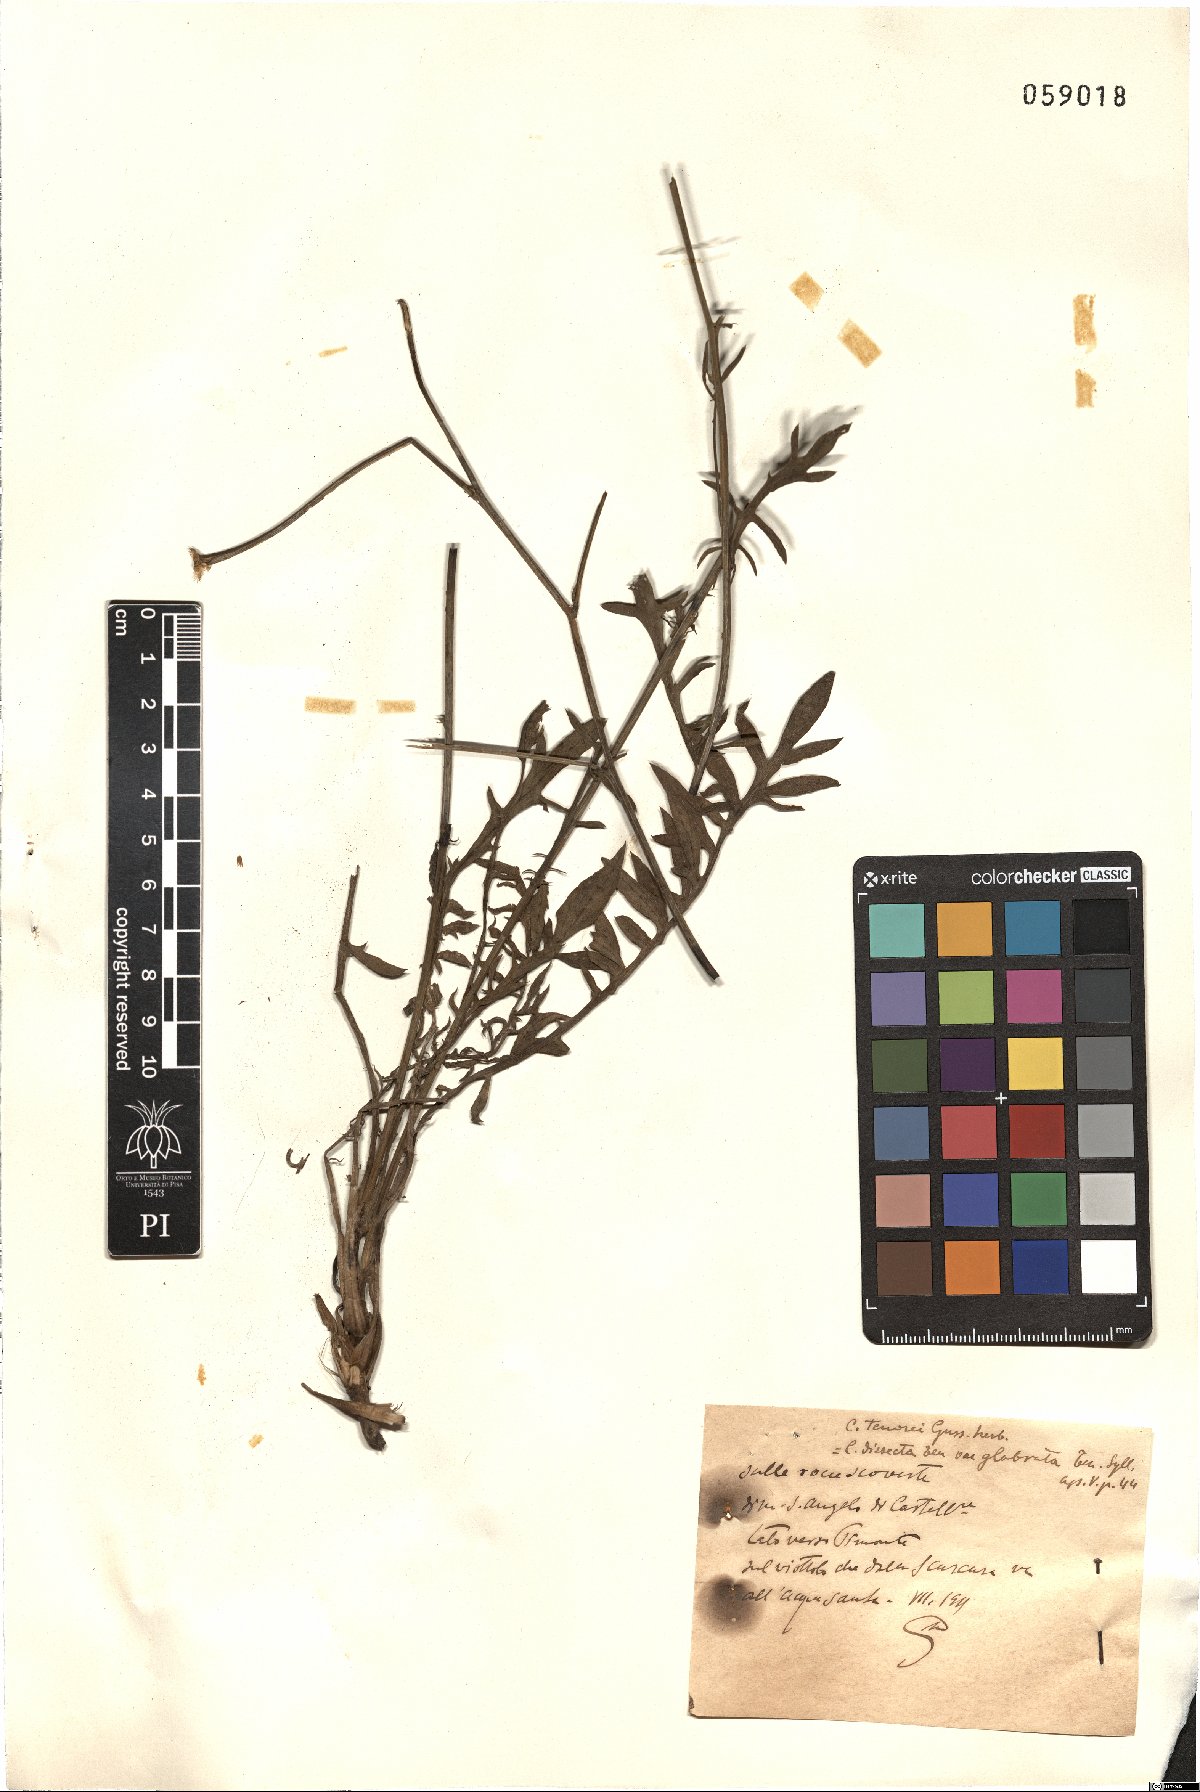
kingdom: Plantae
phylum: Tracheophyta
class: Magnoliopsida
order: Asterales
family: Asteraceae
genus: Centaurea
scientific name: Centaurea tenorei
